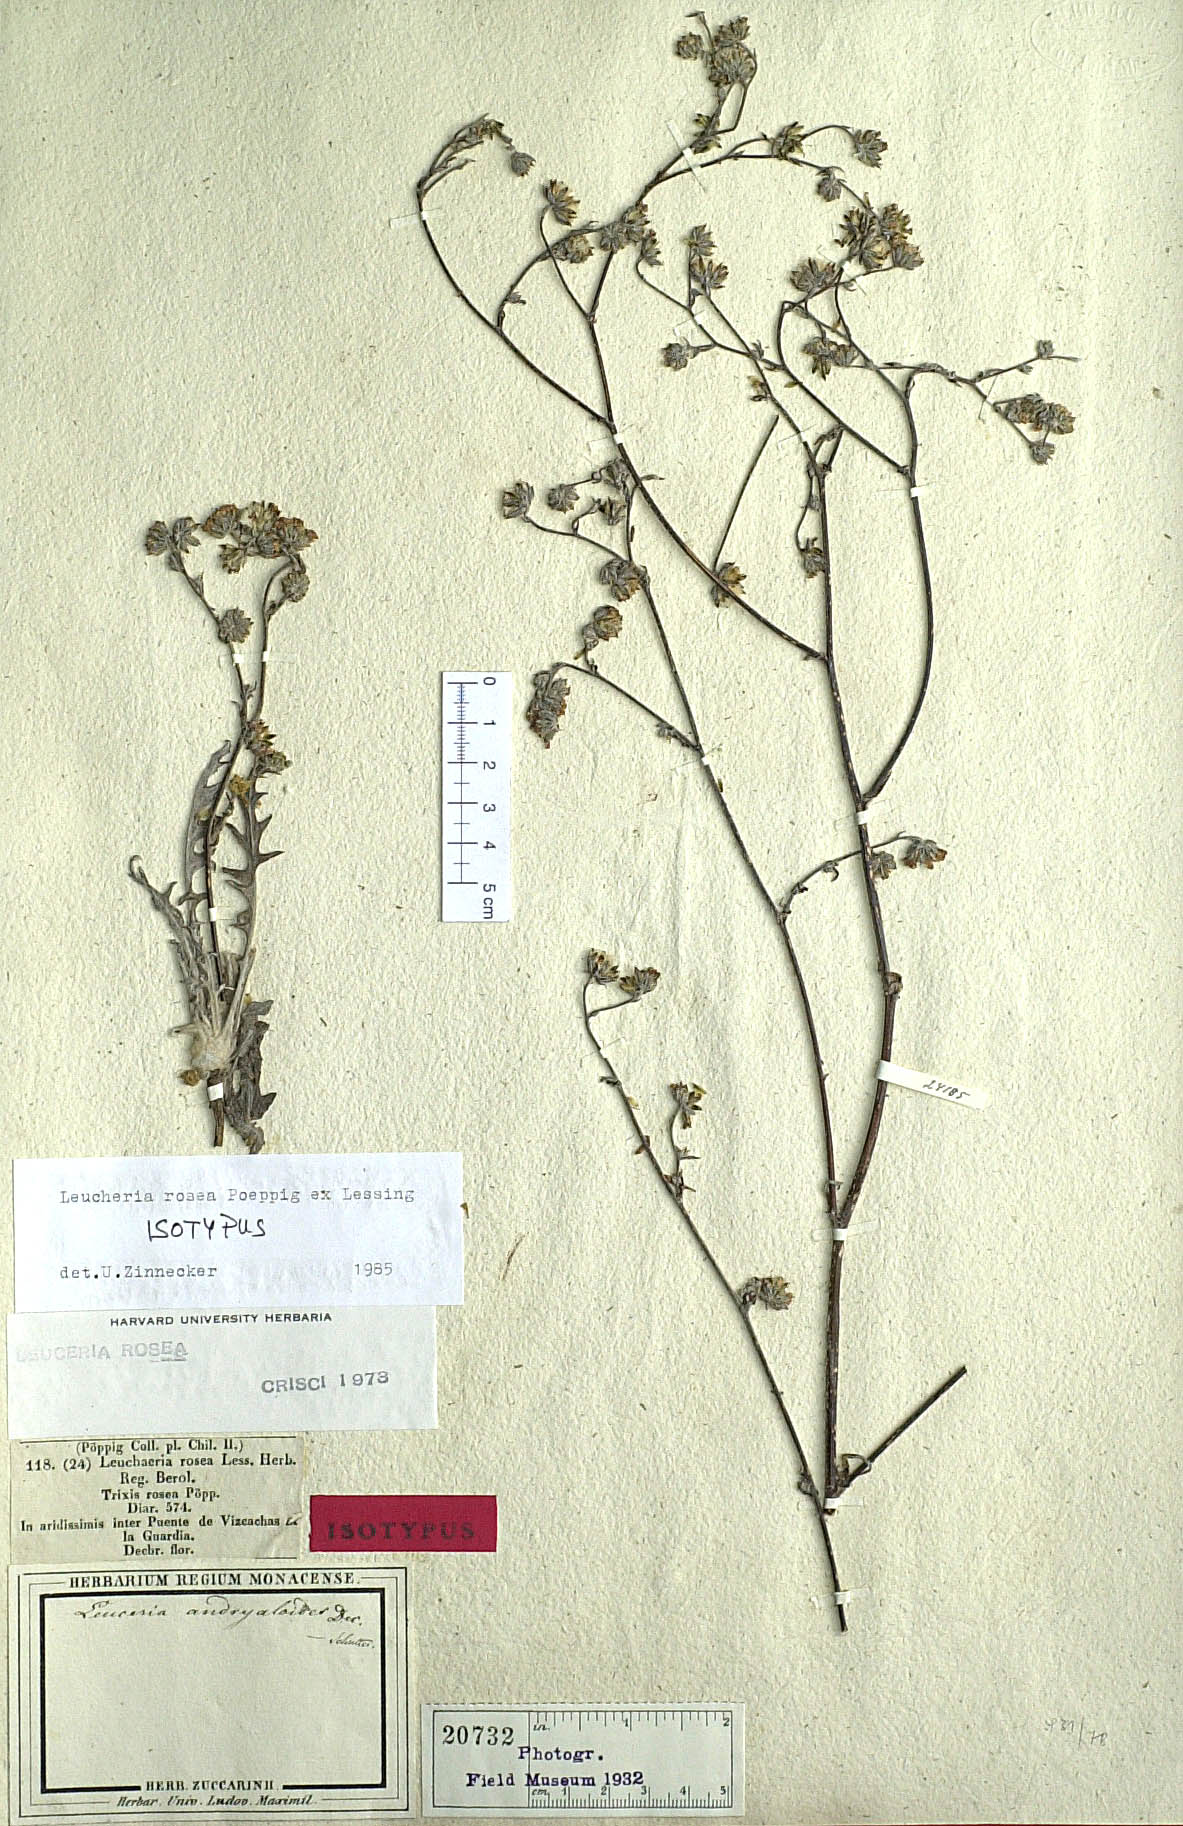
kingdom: Plantae
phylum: Tracheophyta
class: Magnoliopsida
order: Asterales
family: Asteraceae
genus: Leucheria
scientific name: Leucheria rosea
